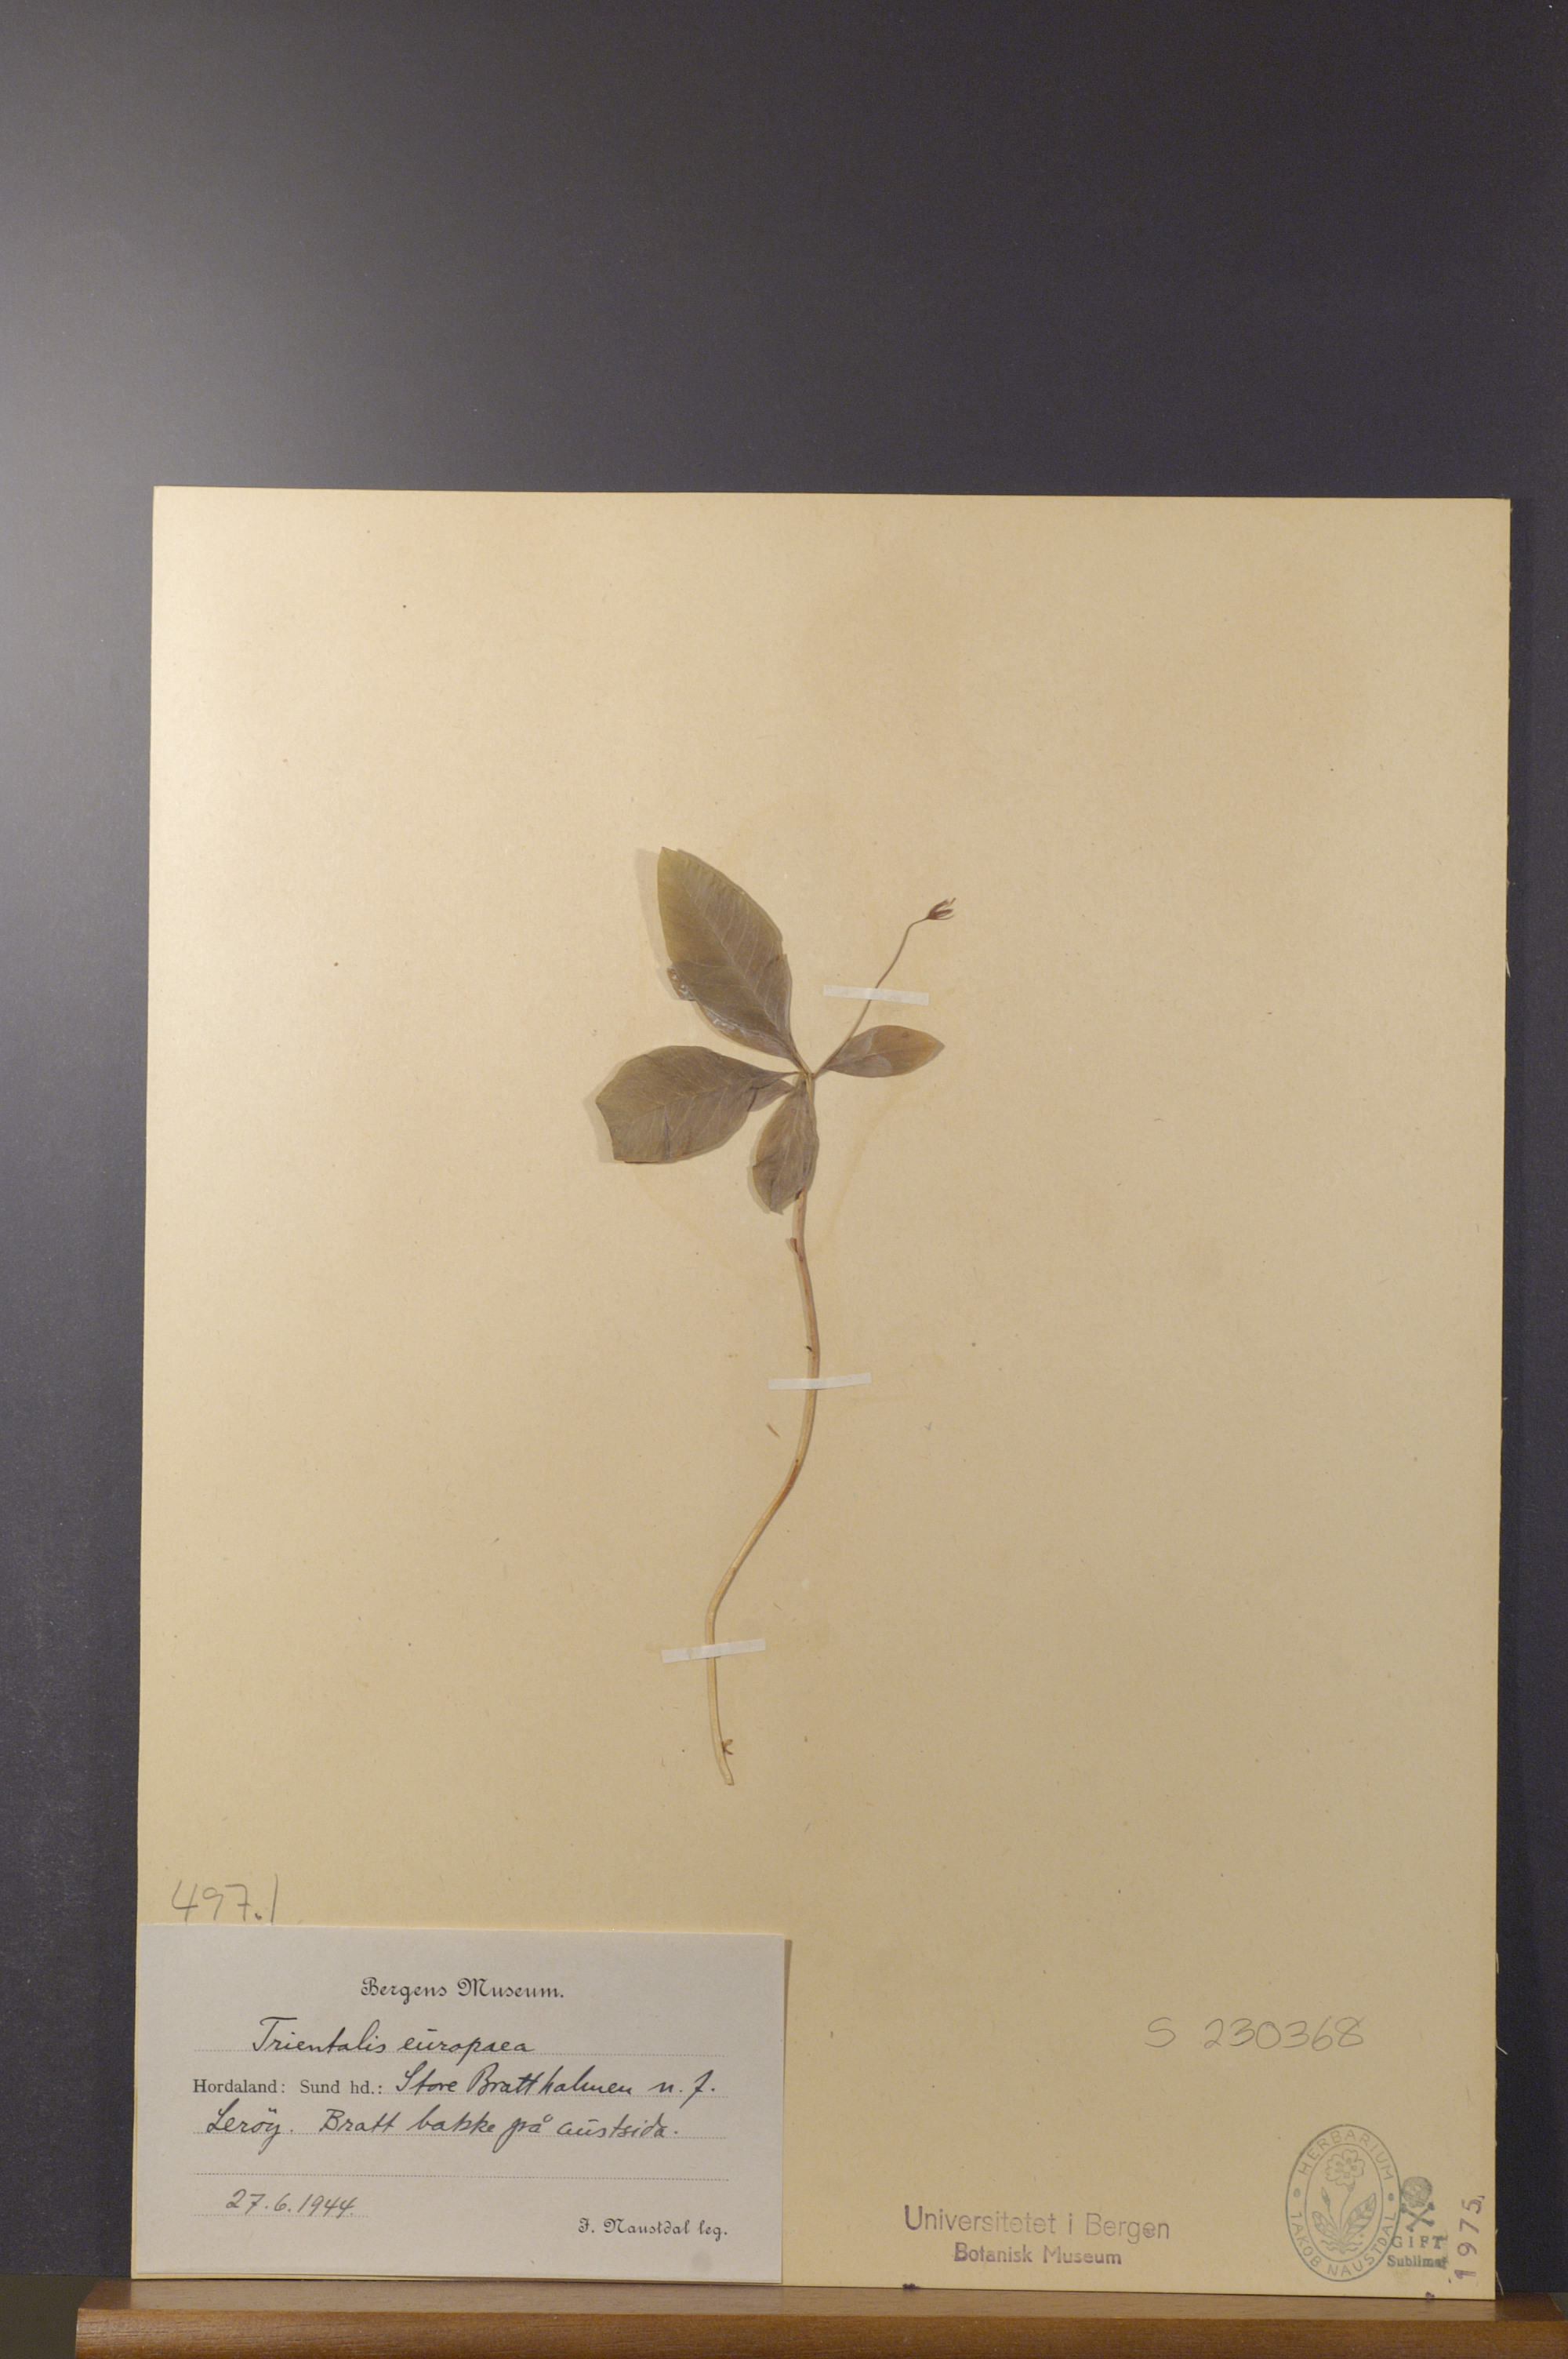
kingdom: Plantae
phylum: Tracheophyta
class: Magnoliopsida
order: Ericales
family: Primulaceae
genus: Lysimachia
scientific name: Lysimachia europaea
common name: Arctic starflower
